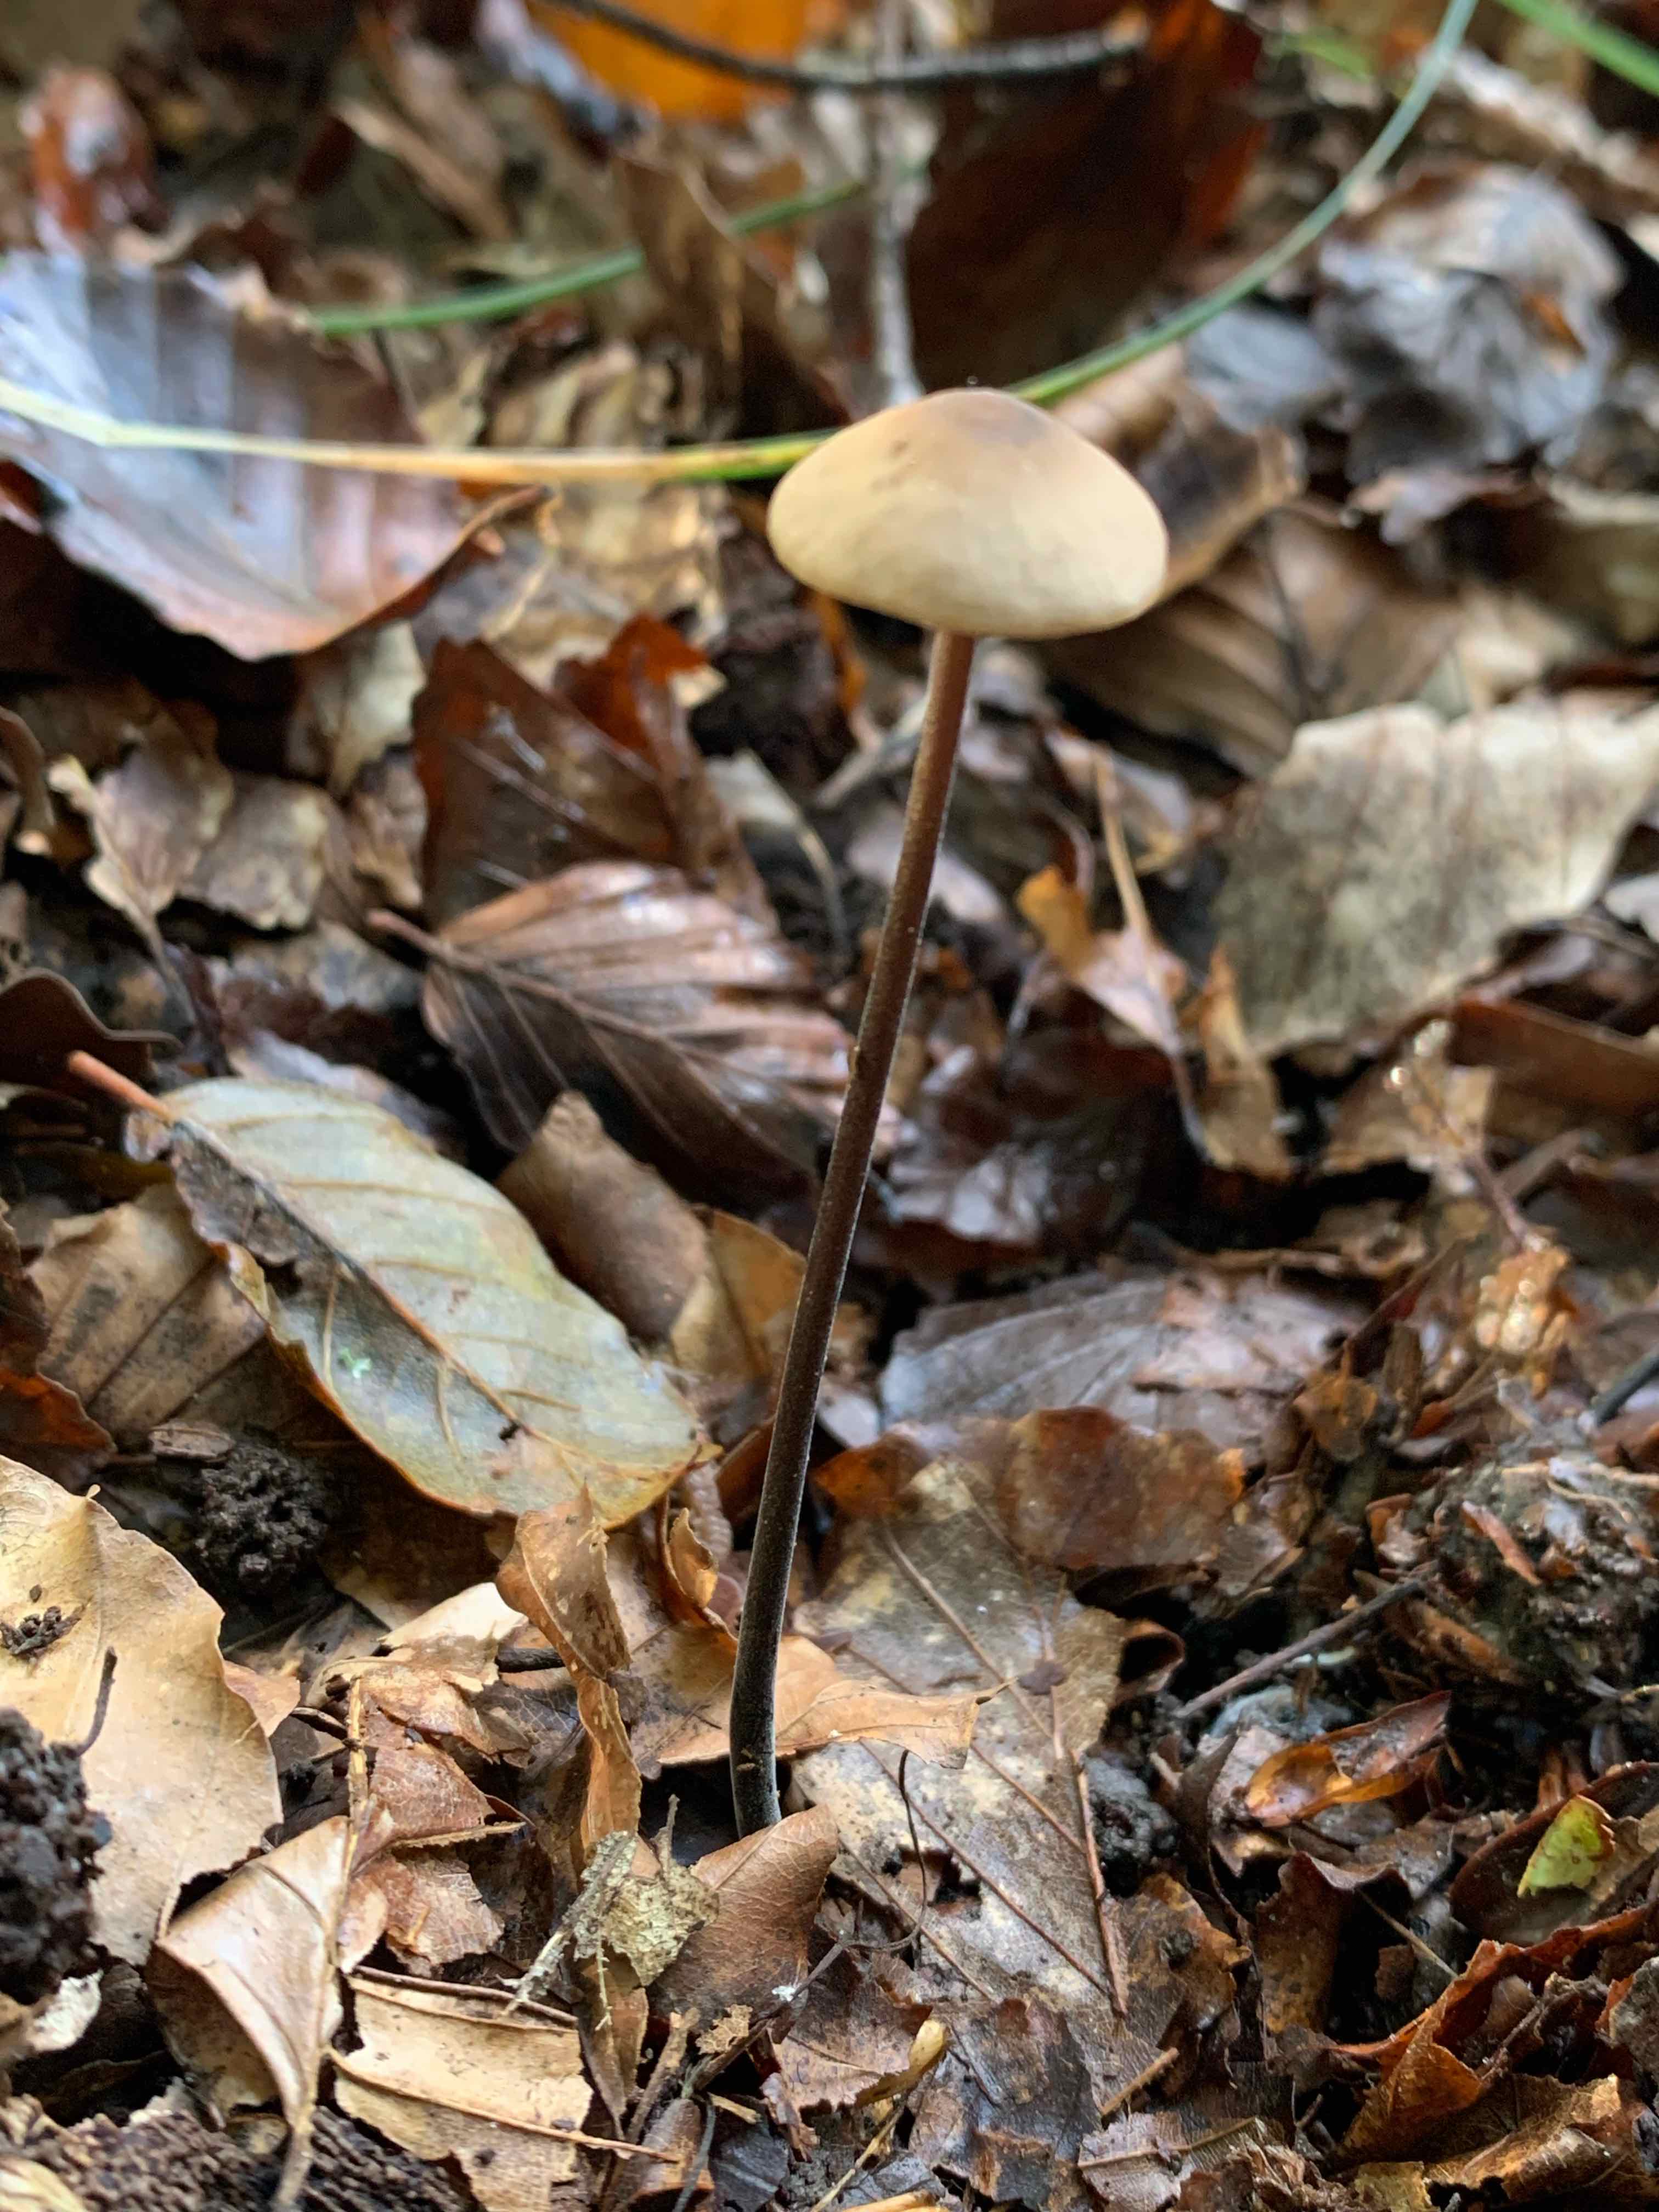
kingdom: Fungi
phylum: Basidiomycota
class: Agaricomycetes
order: Agaricales
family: Omphalotaceae
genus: Mycetinis
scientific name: Mycetinis alliaceus
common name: stor løghat
